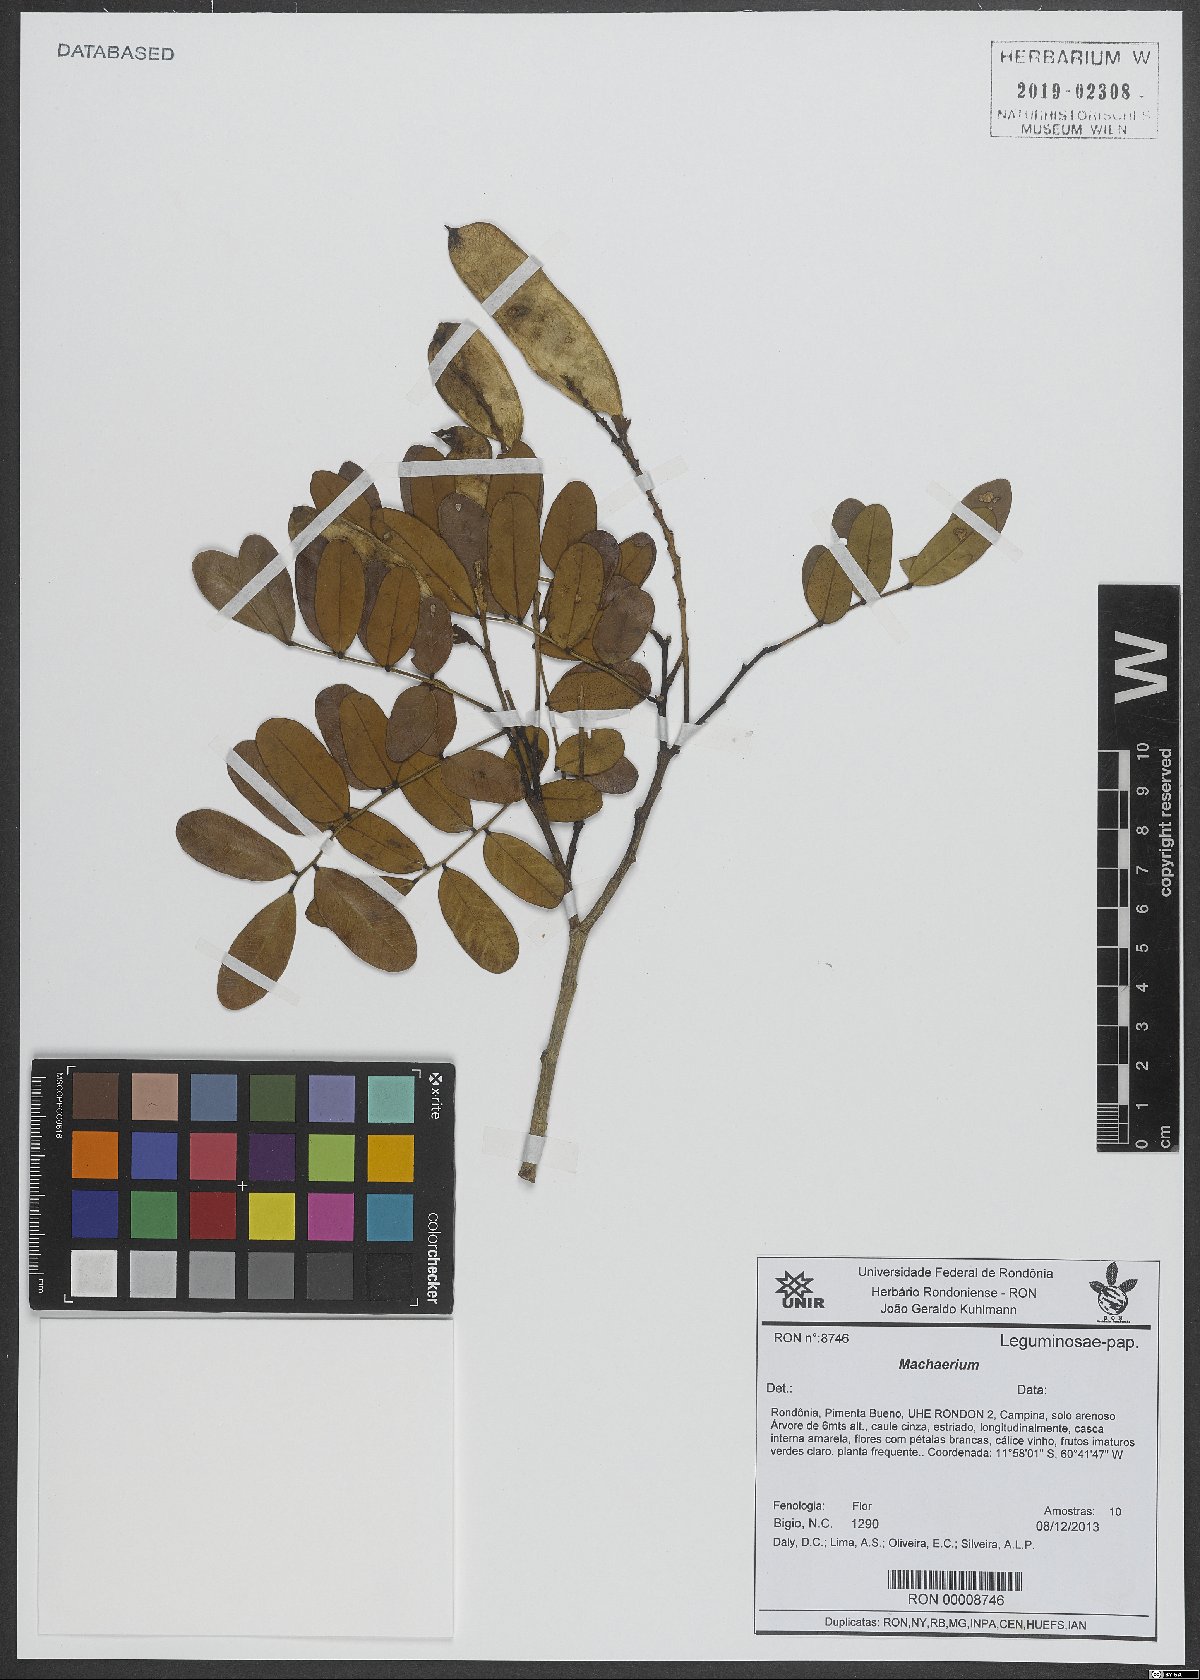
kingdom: Plantae
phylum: Tracheophyta
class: Magnoliopsida
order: Fabales
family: Fabaceae
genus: Machaerium
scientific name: Machaerium
